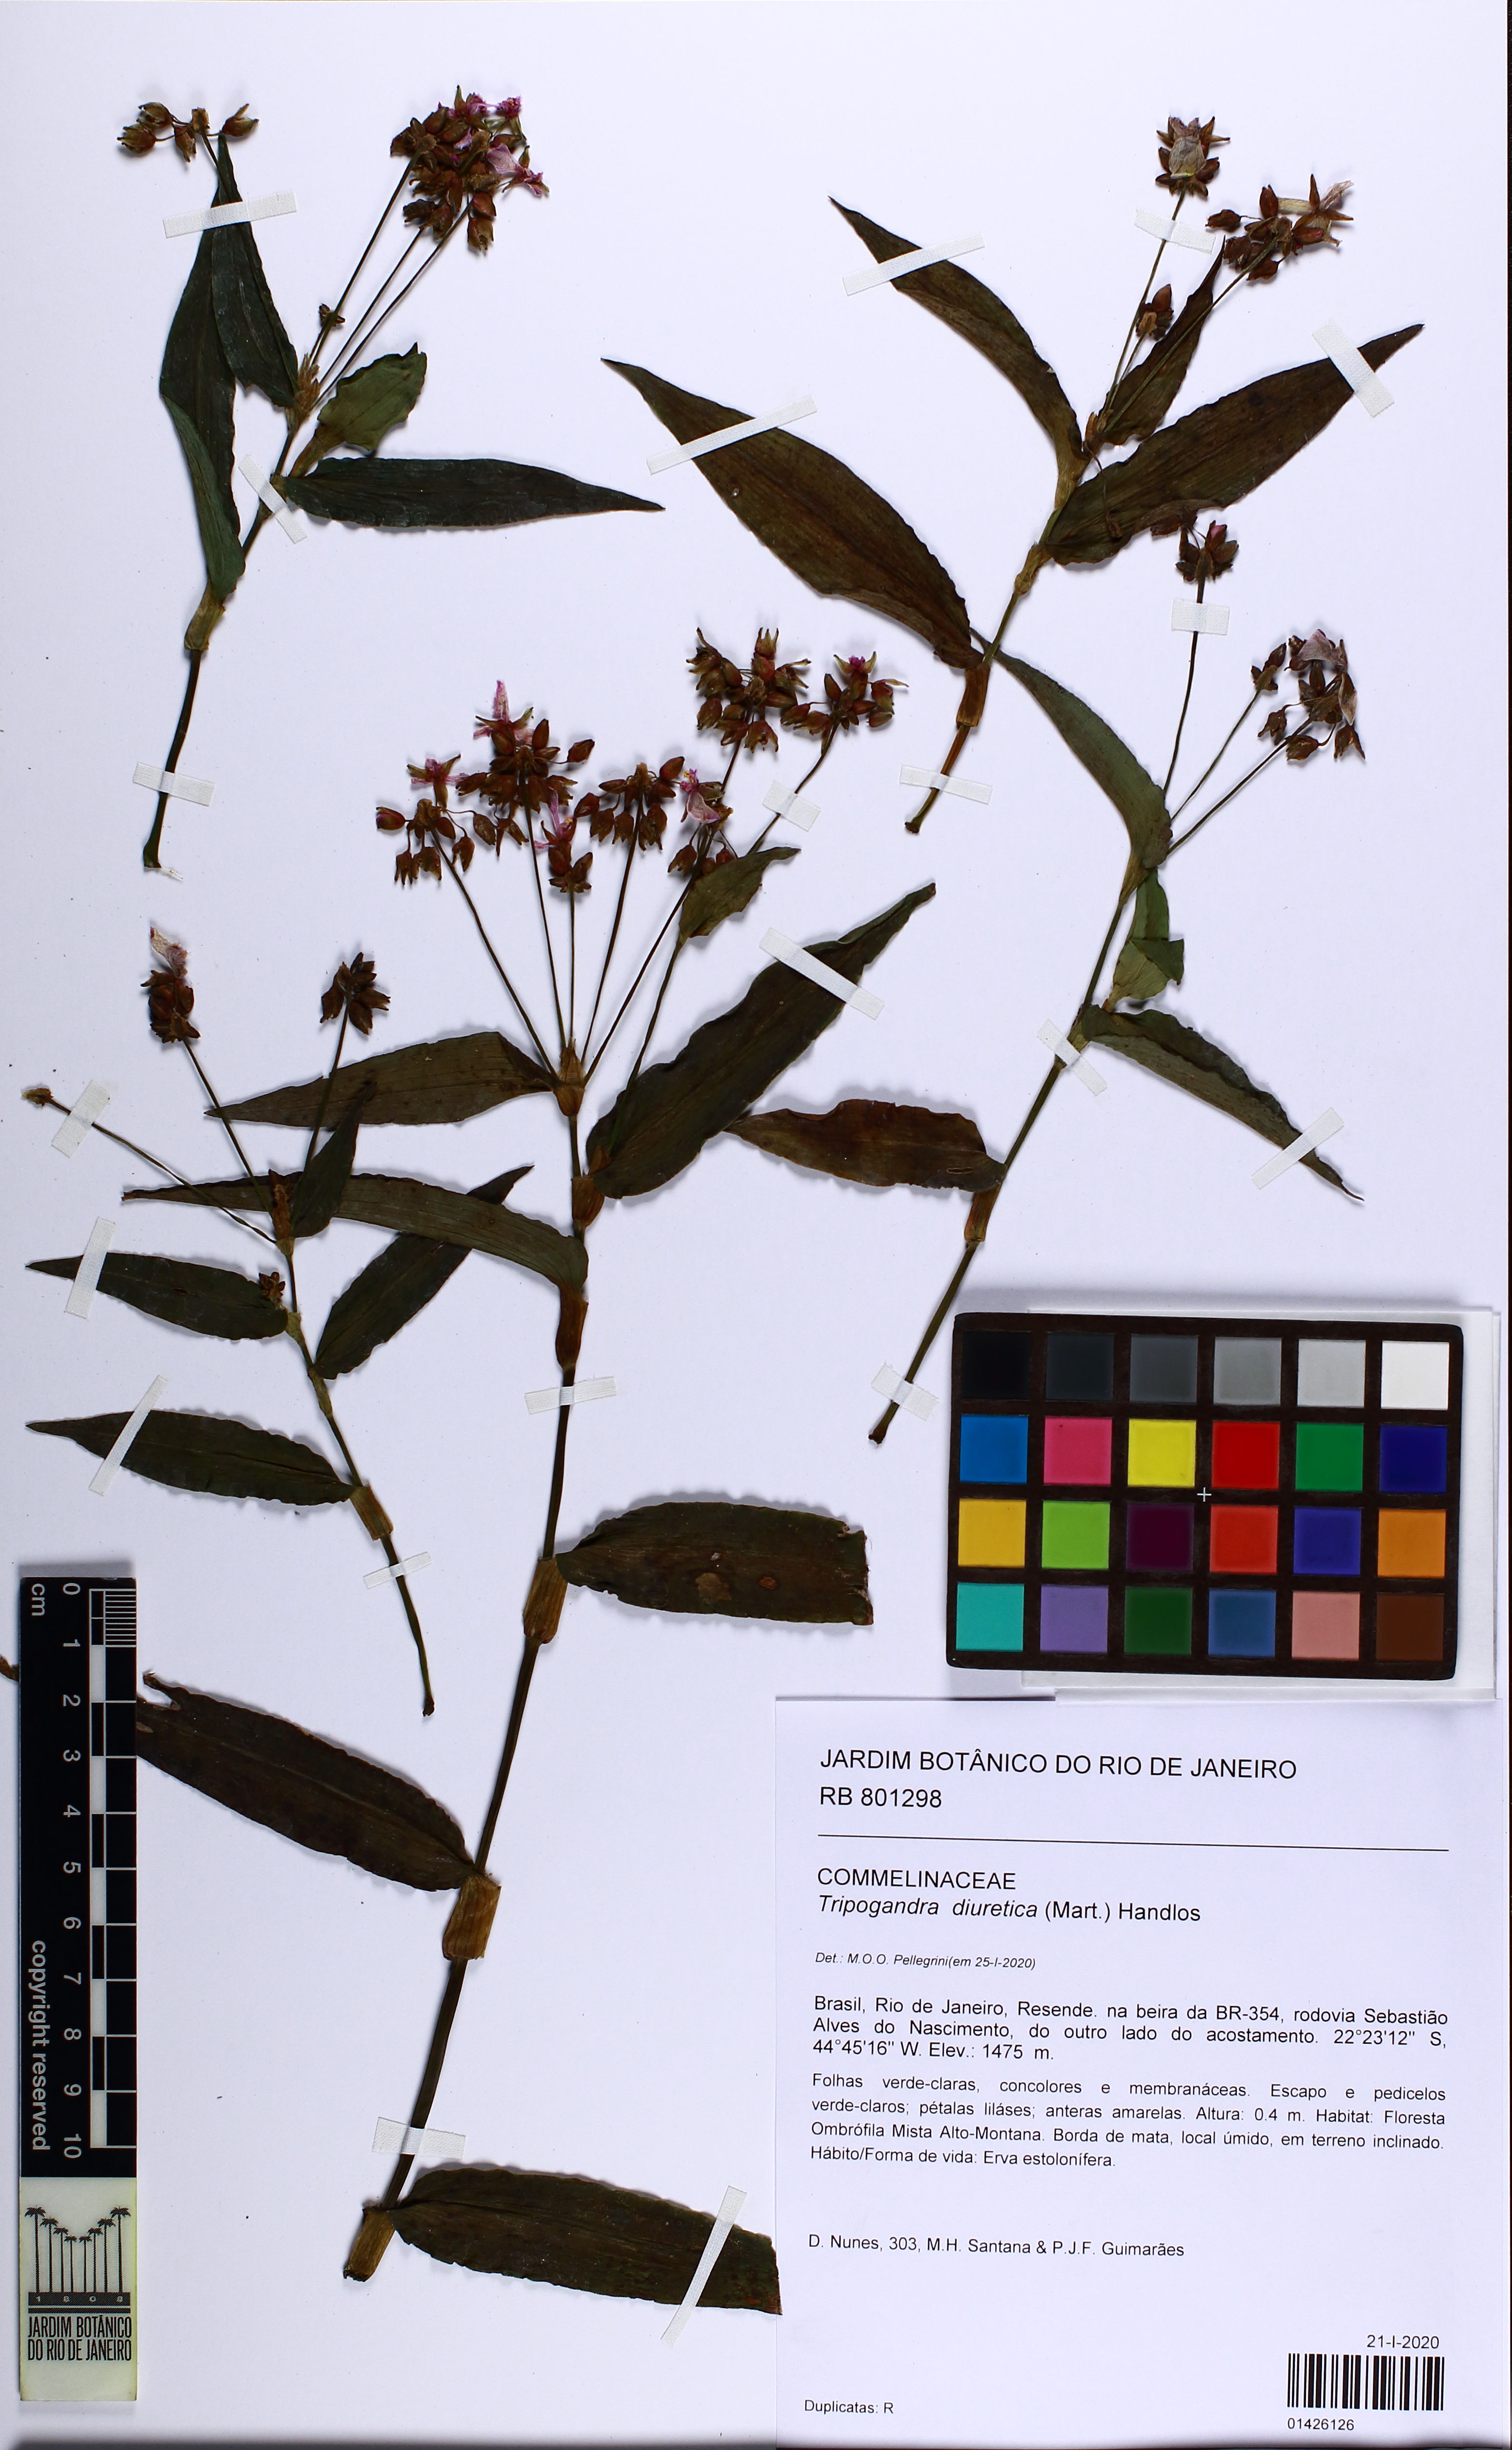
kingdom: Plantae
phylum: Tracheophyta
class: Liliopsida
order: Commelinales
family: Commelinaceae
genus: Callisia
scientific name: Callisia diuretica
